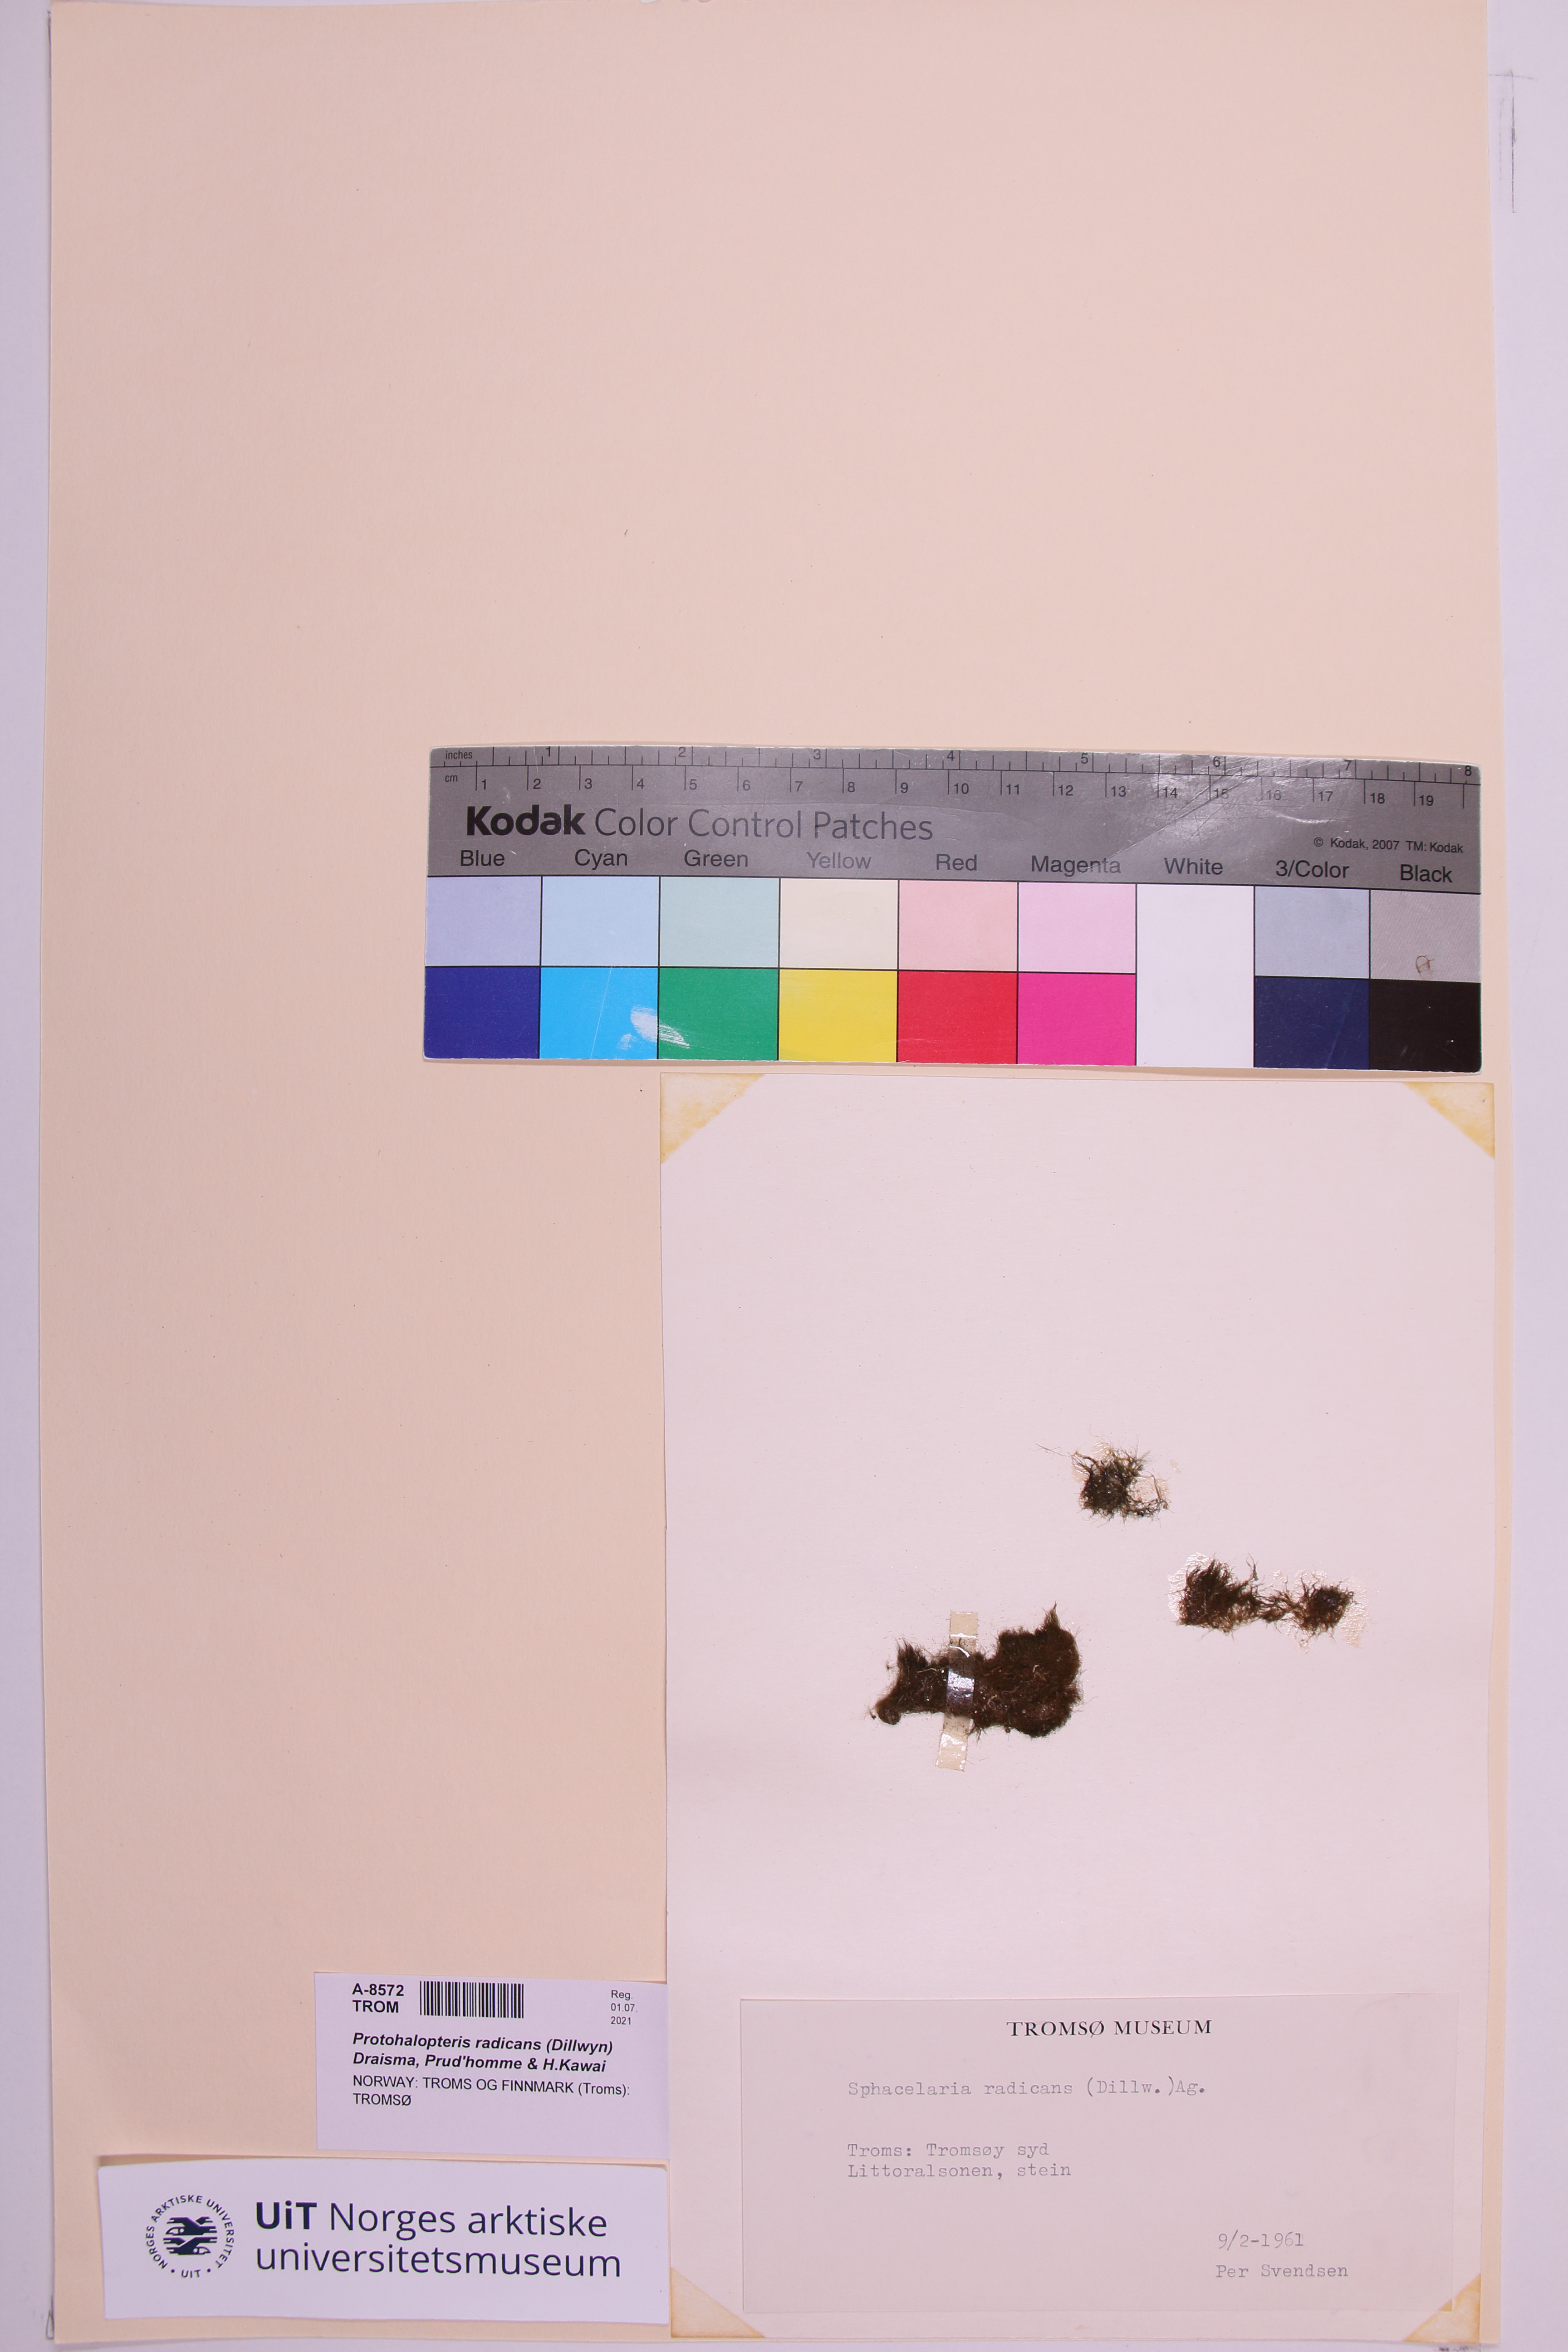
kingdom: Chromista
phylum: Ochrophyta
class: Phaeophyceae
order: Sphacelariales
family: Stypocaulaceae
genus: Protohalopteris
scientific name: Protohalopteris radicans
